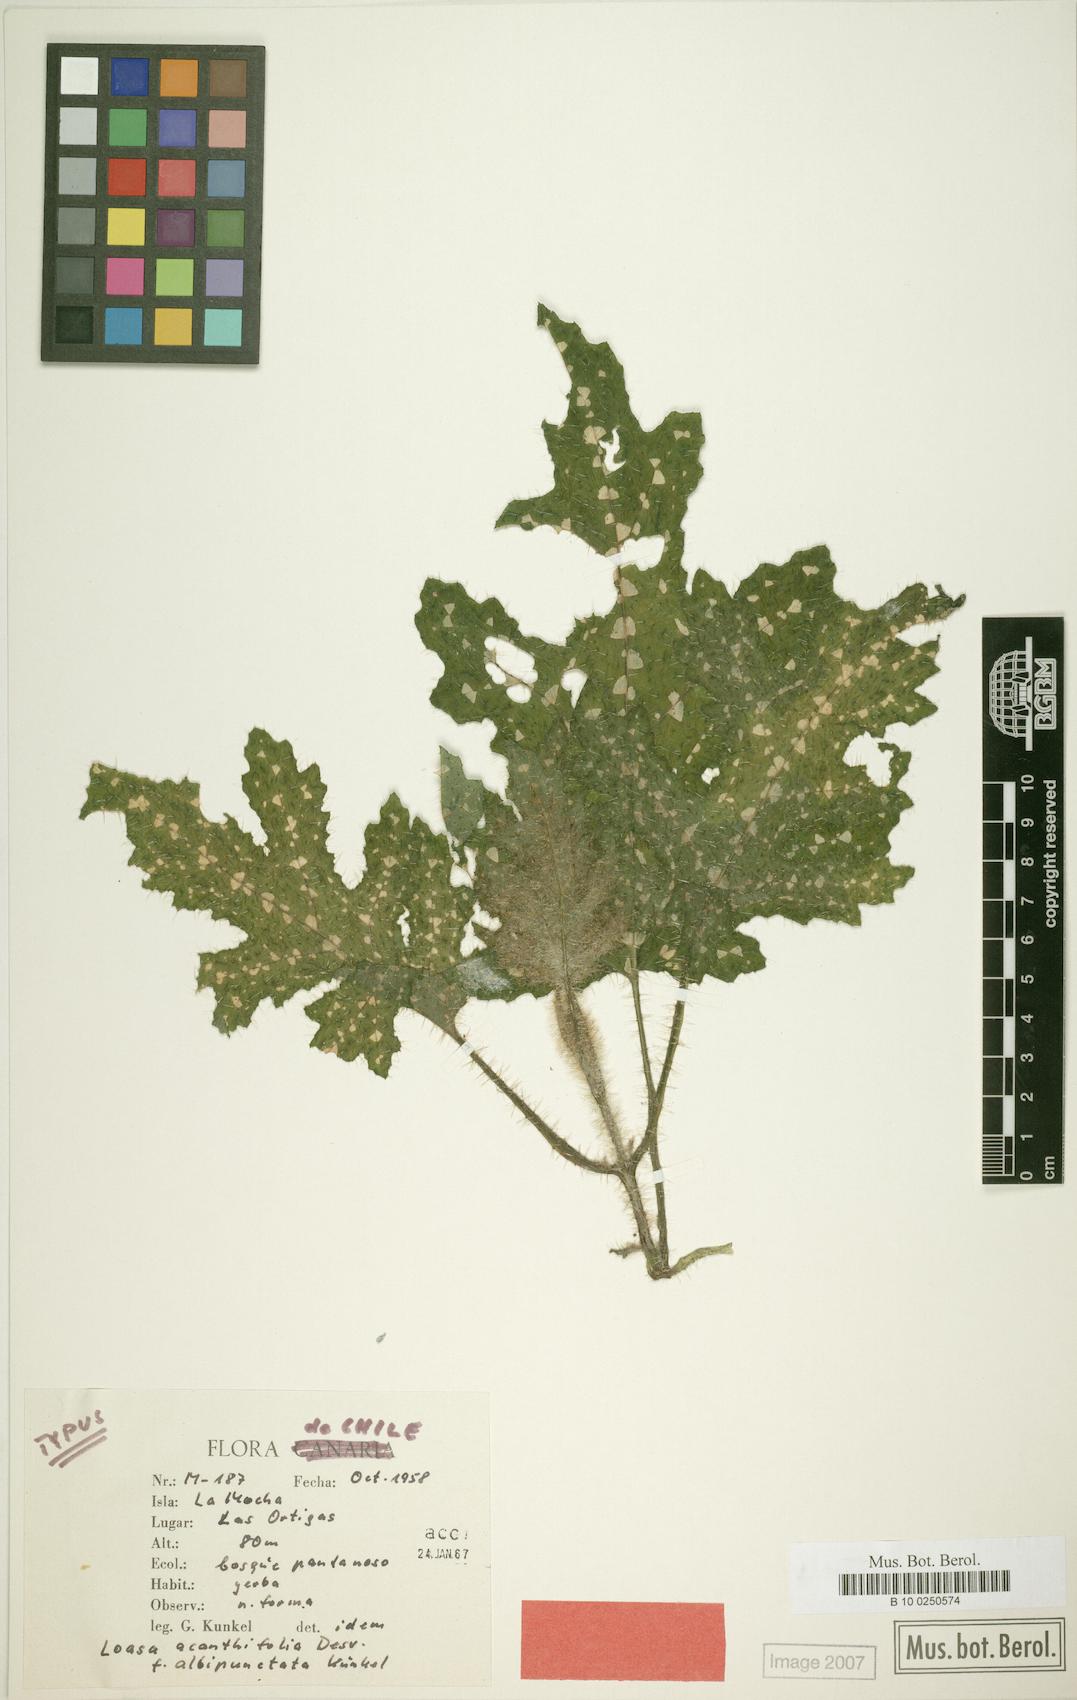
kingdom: Plantae
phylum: Tracheophyta
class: Magnoliopsida
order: Cornales
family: Loasaceae
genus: Loasa
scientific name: Loasa acanthifolia
